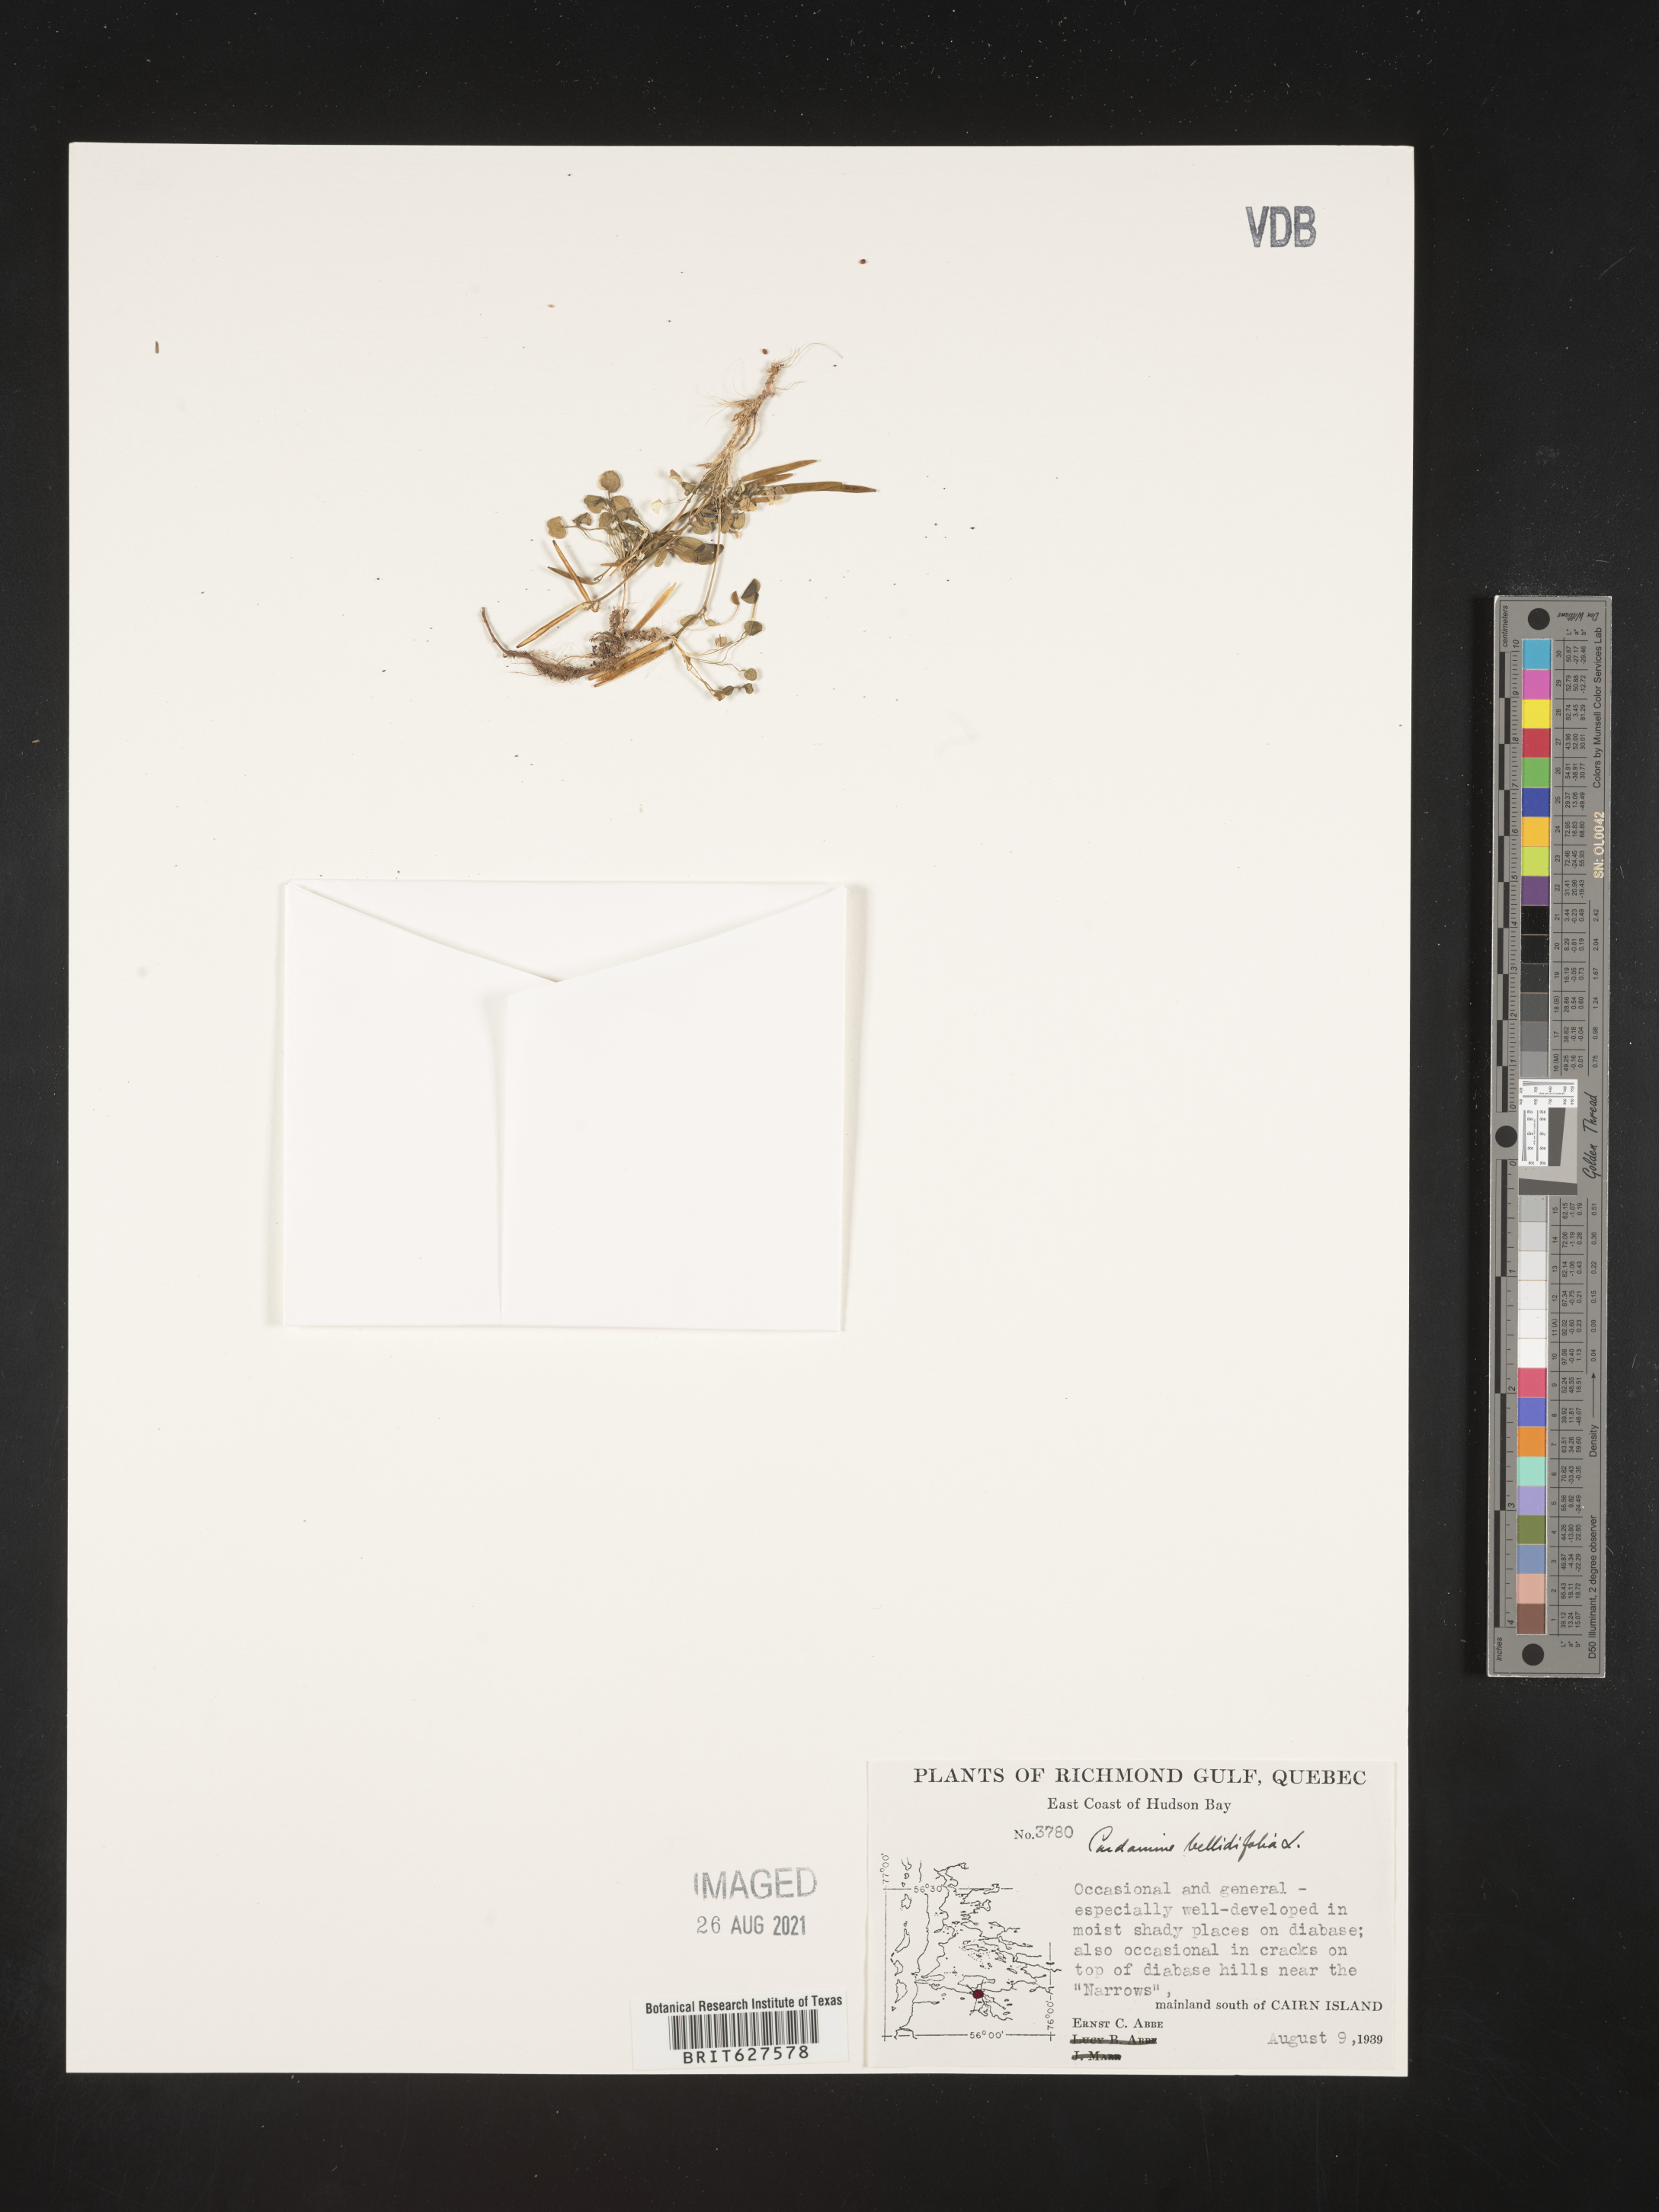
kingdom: Plantae
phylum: Tracheophyta
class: Magnoliopsida
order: Brassicales
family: Brassicaceae
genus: Cardamine
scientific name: Cardamine bellidifolia
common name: Alpine bittercress
